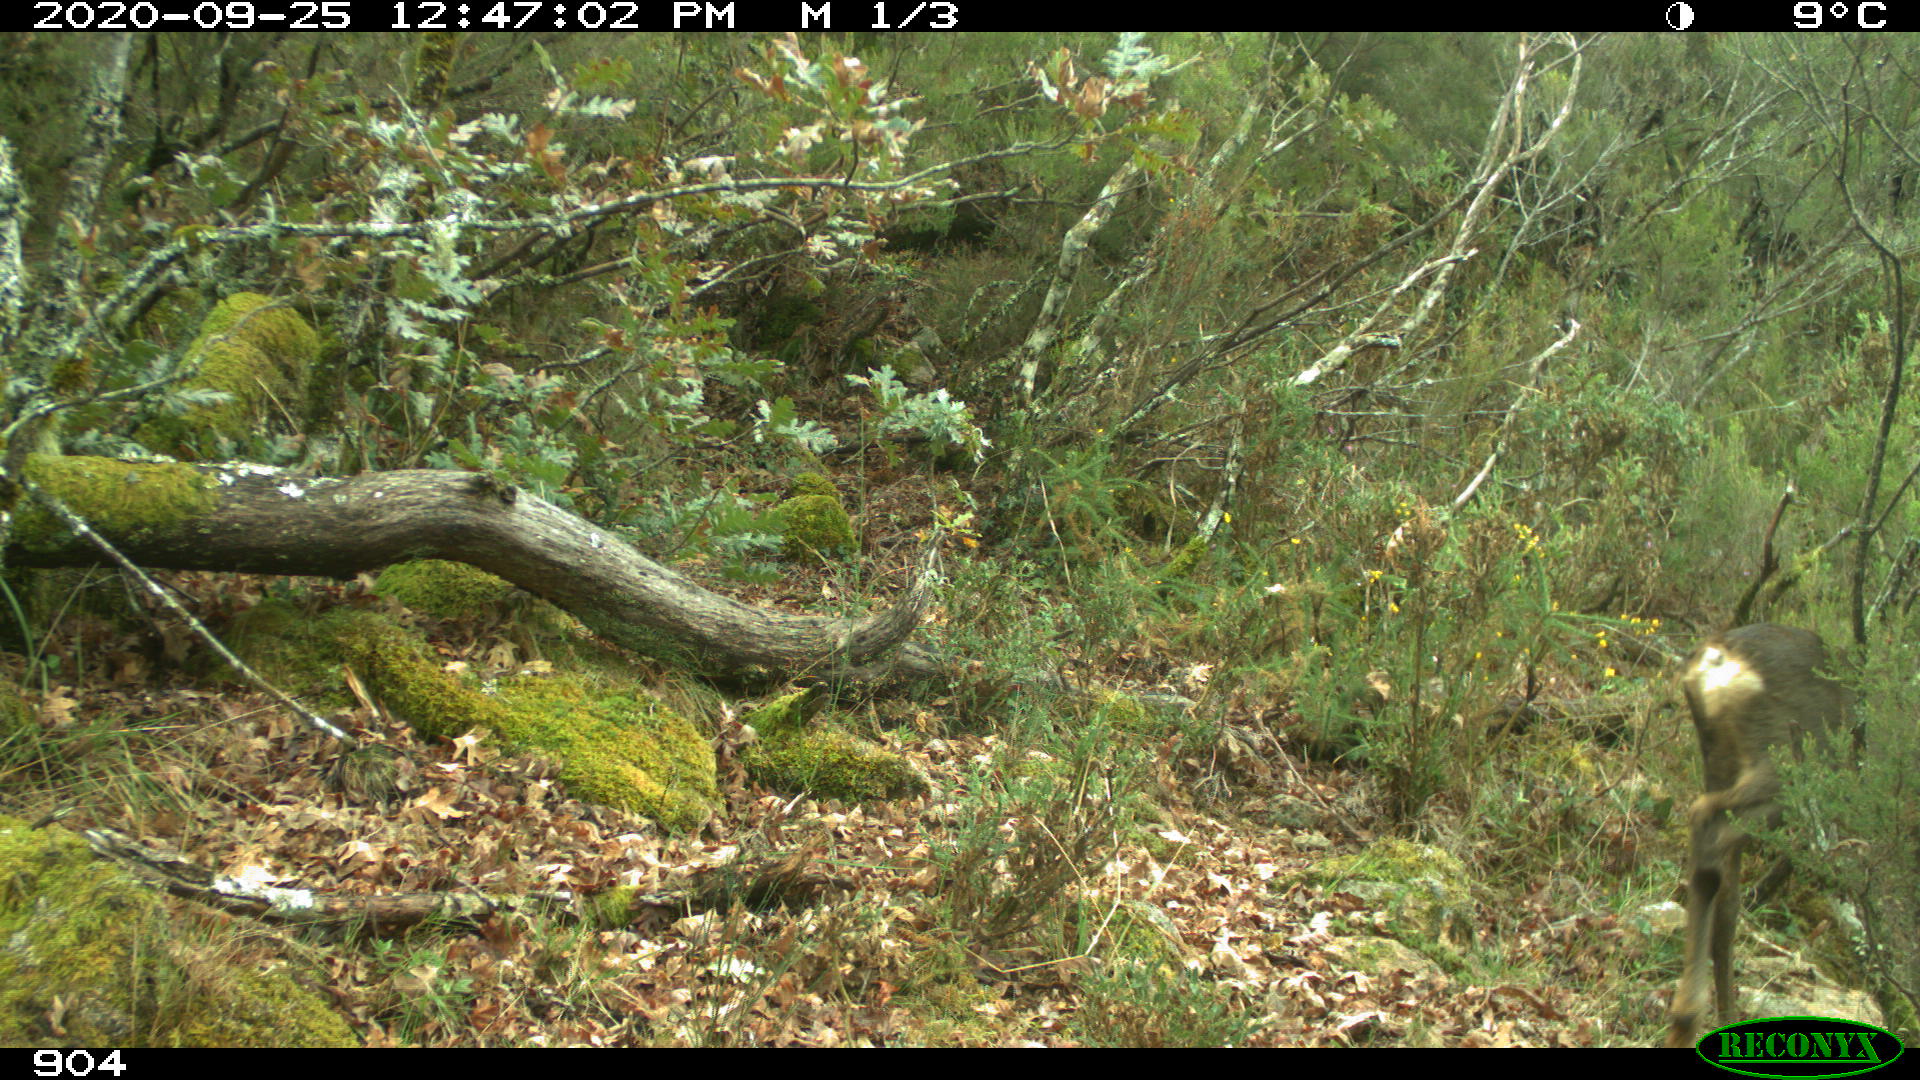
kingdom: Animalia
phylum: Chordata
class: Mammalia
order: Artiodactyla
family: Cervidae
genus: Capreolus
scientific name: Capreolus capreolus
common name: Western roe deer
